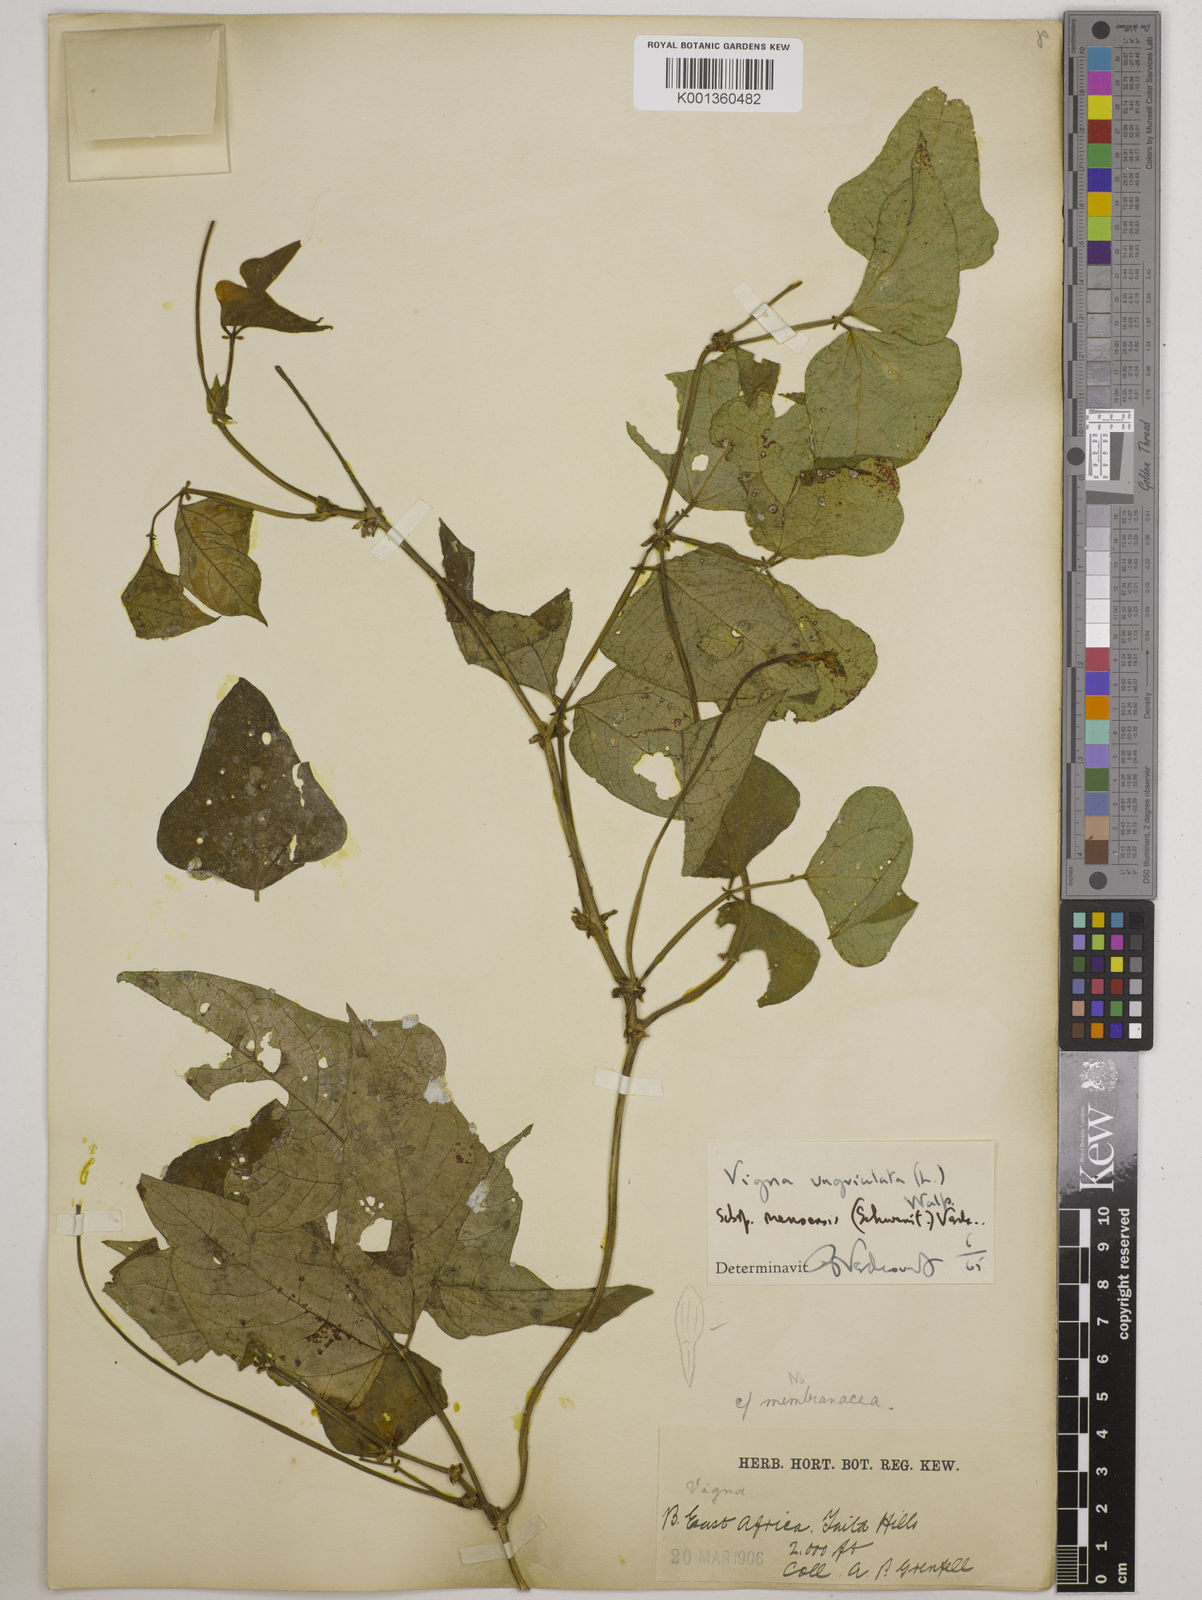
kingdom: Plantae
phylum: Tracheophyta
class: Magnoliopsida
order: Fabales
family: Fabaceae
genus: Vigna
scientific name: Vigna unguiculata
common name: Cowpea
